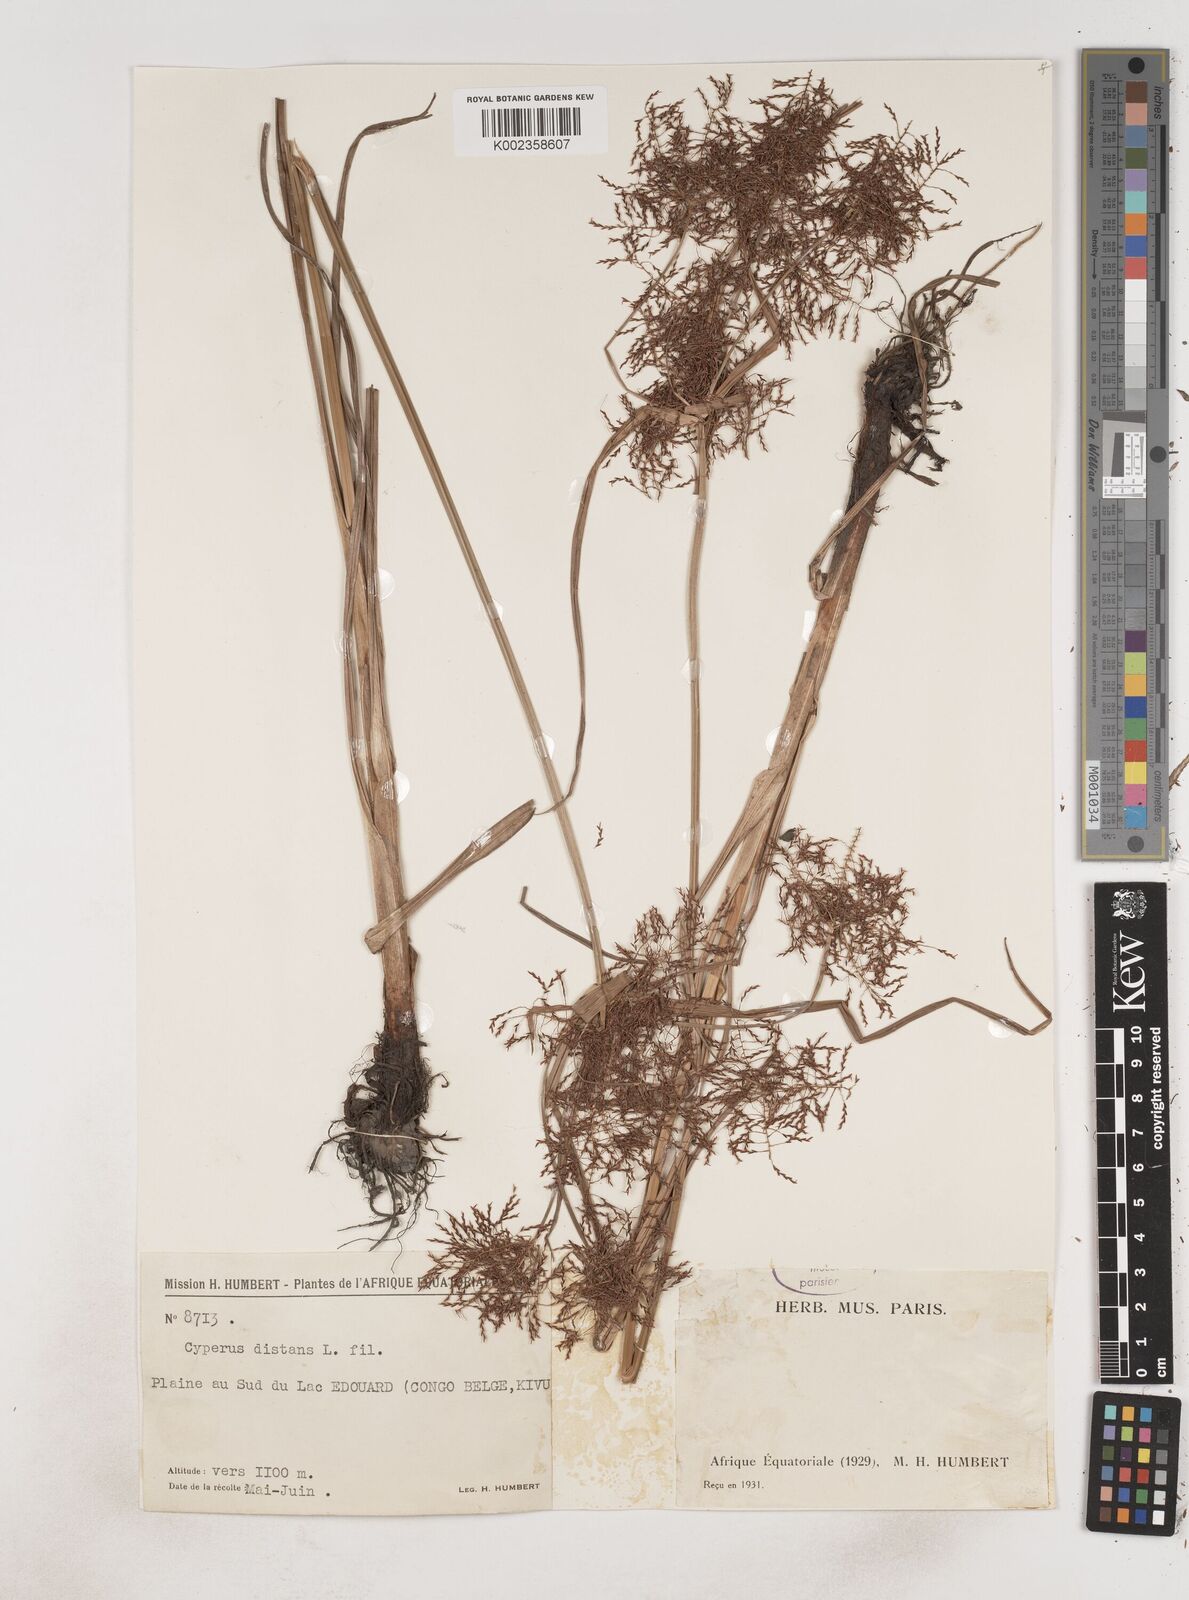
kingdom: Plantae
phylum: Tracheophyta
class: Liliopsida
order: Poales
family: Cyperaceae
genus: Cyperus
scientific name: Cyperus distans
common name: Slender cyperus
